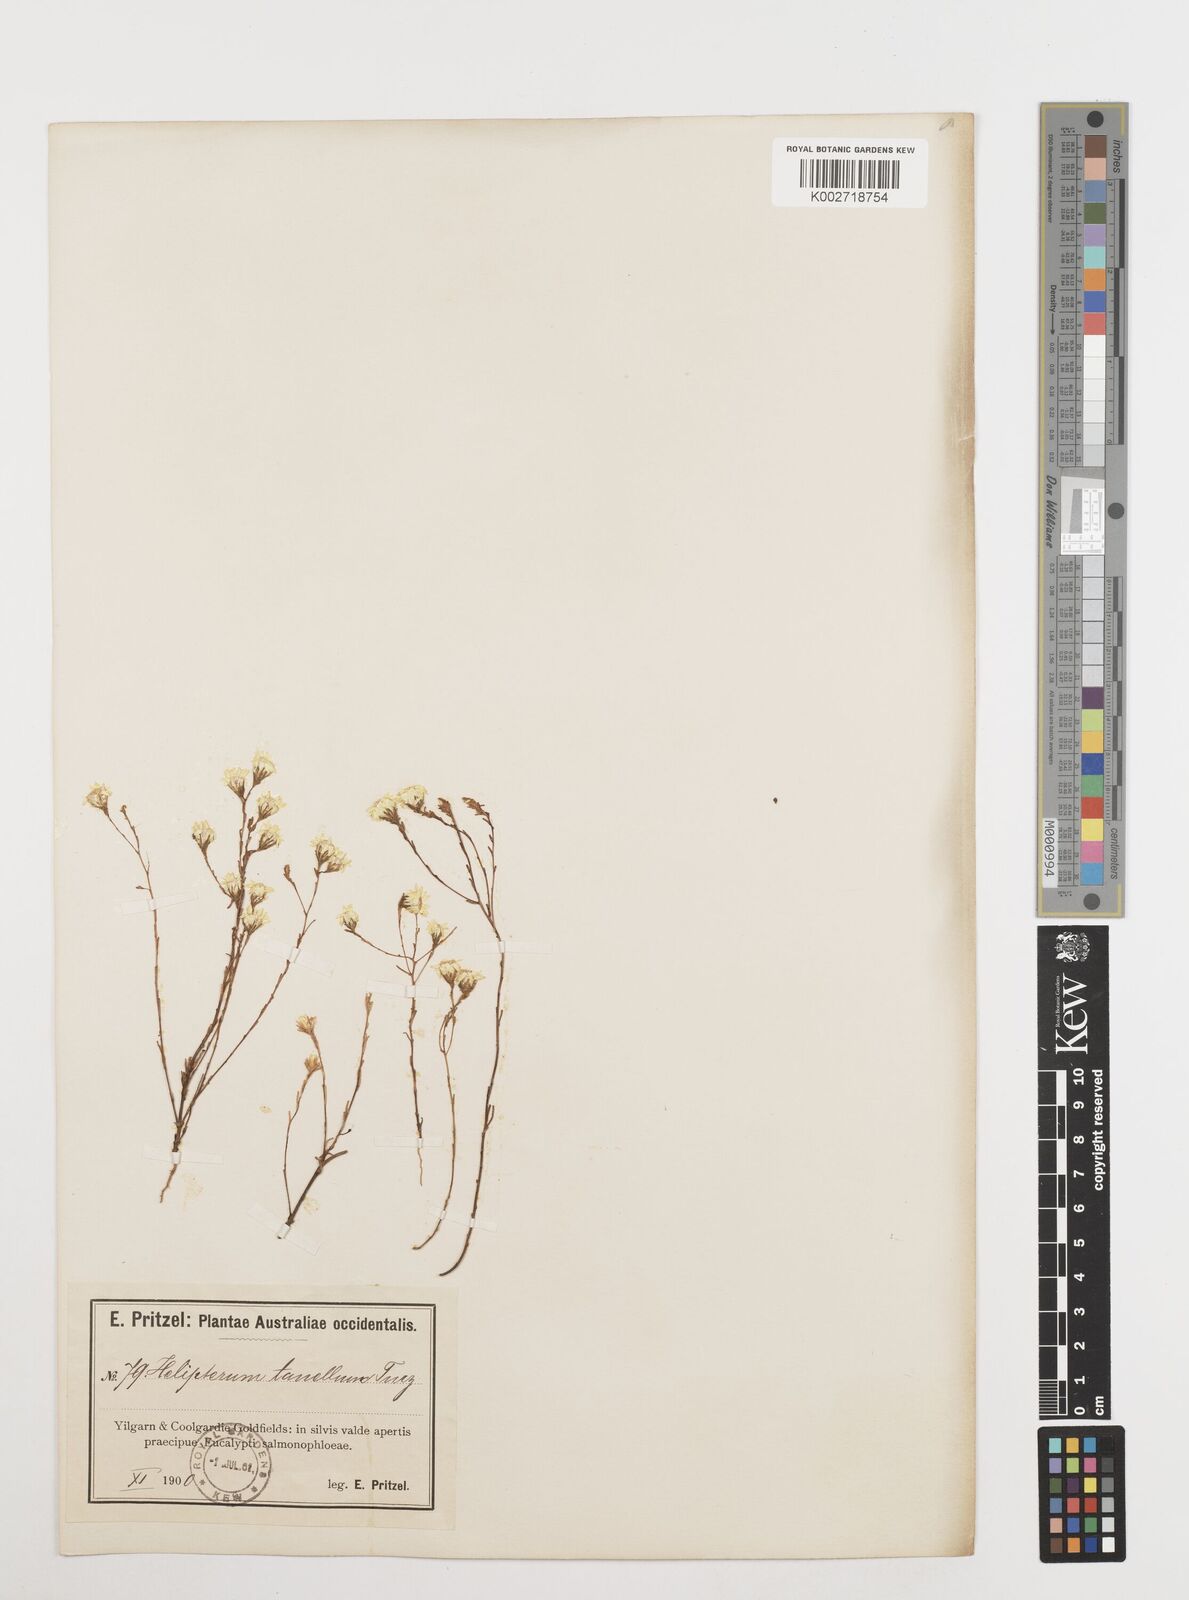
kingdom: Plantae
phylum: Tracheophyta
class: Magnoliopsida
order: Asterales
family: Asteraceae
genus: Erymophyllum
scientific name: Erymophyllum tenellum
